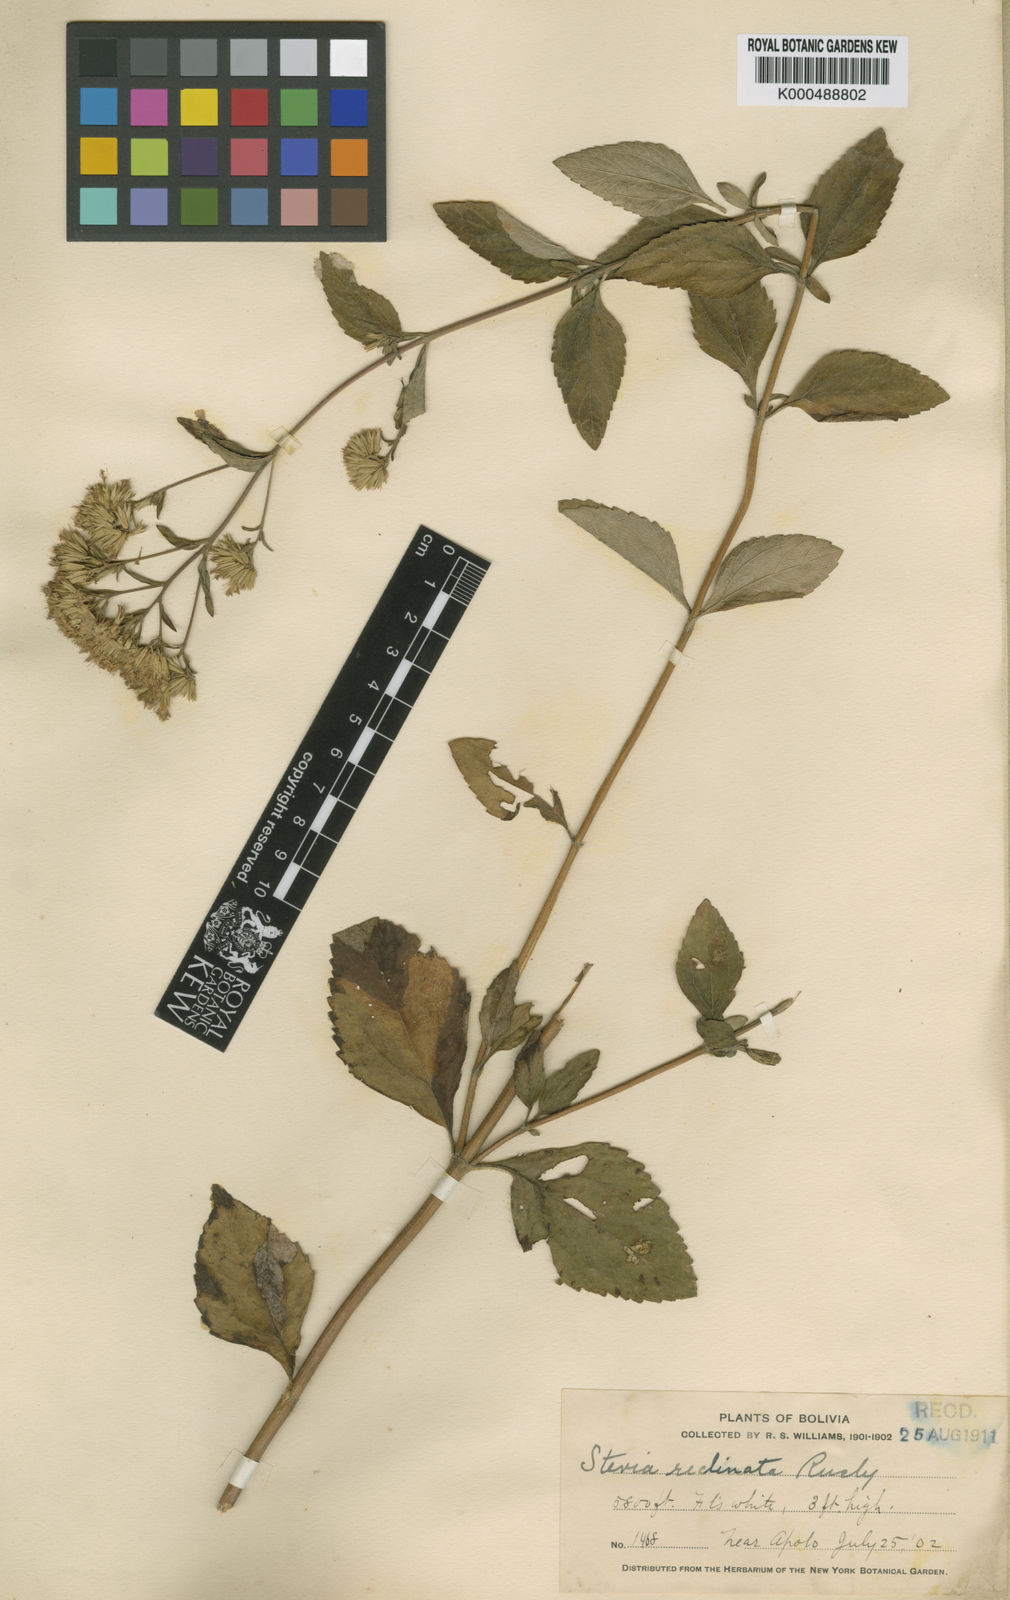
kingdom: Plantae
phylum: Tracheophyta
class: Magnoliopsida
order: Asterales
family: Asteraceae
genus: Stevia
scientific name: Stevia reclinata
